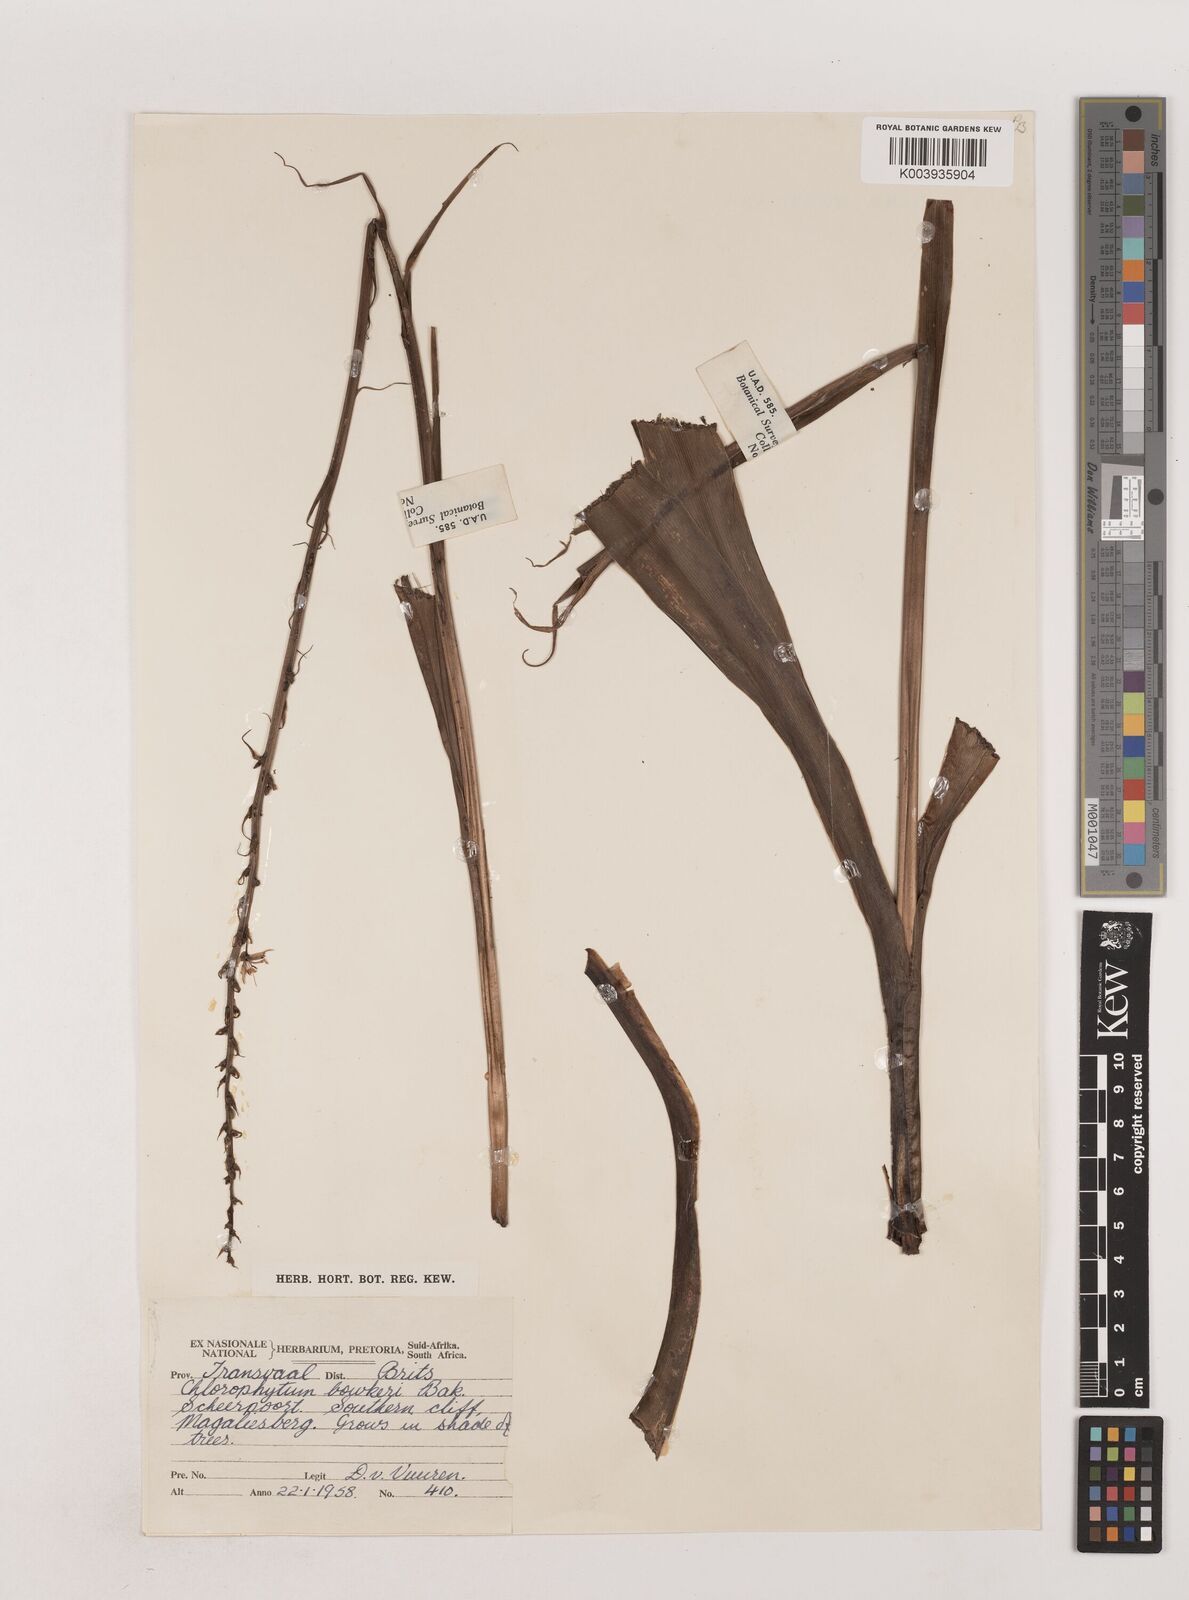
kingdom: Plantae
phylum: Tracheophyta
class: Liliopsida
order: Asparagales
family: Asparagaceae
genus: Chlorophytum
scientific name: Chlorophytum bowkeri
